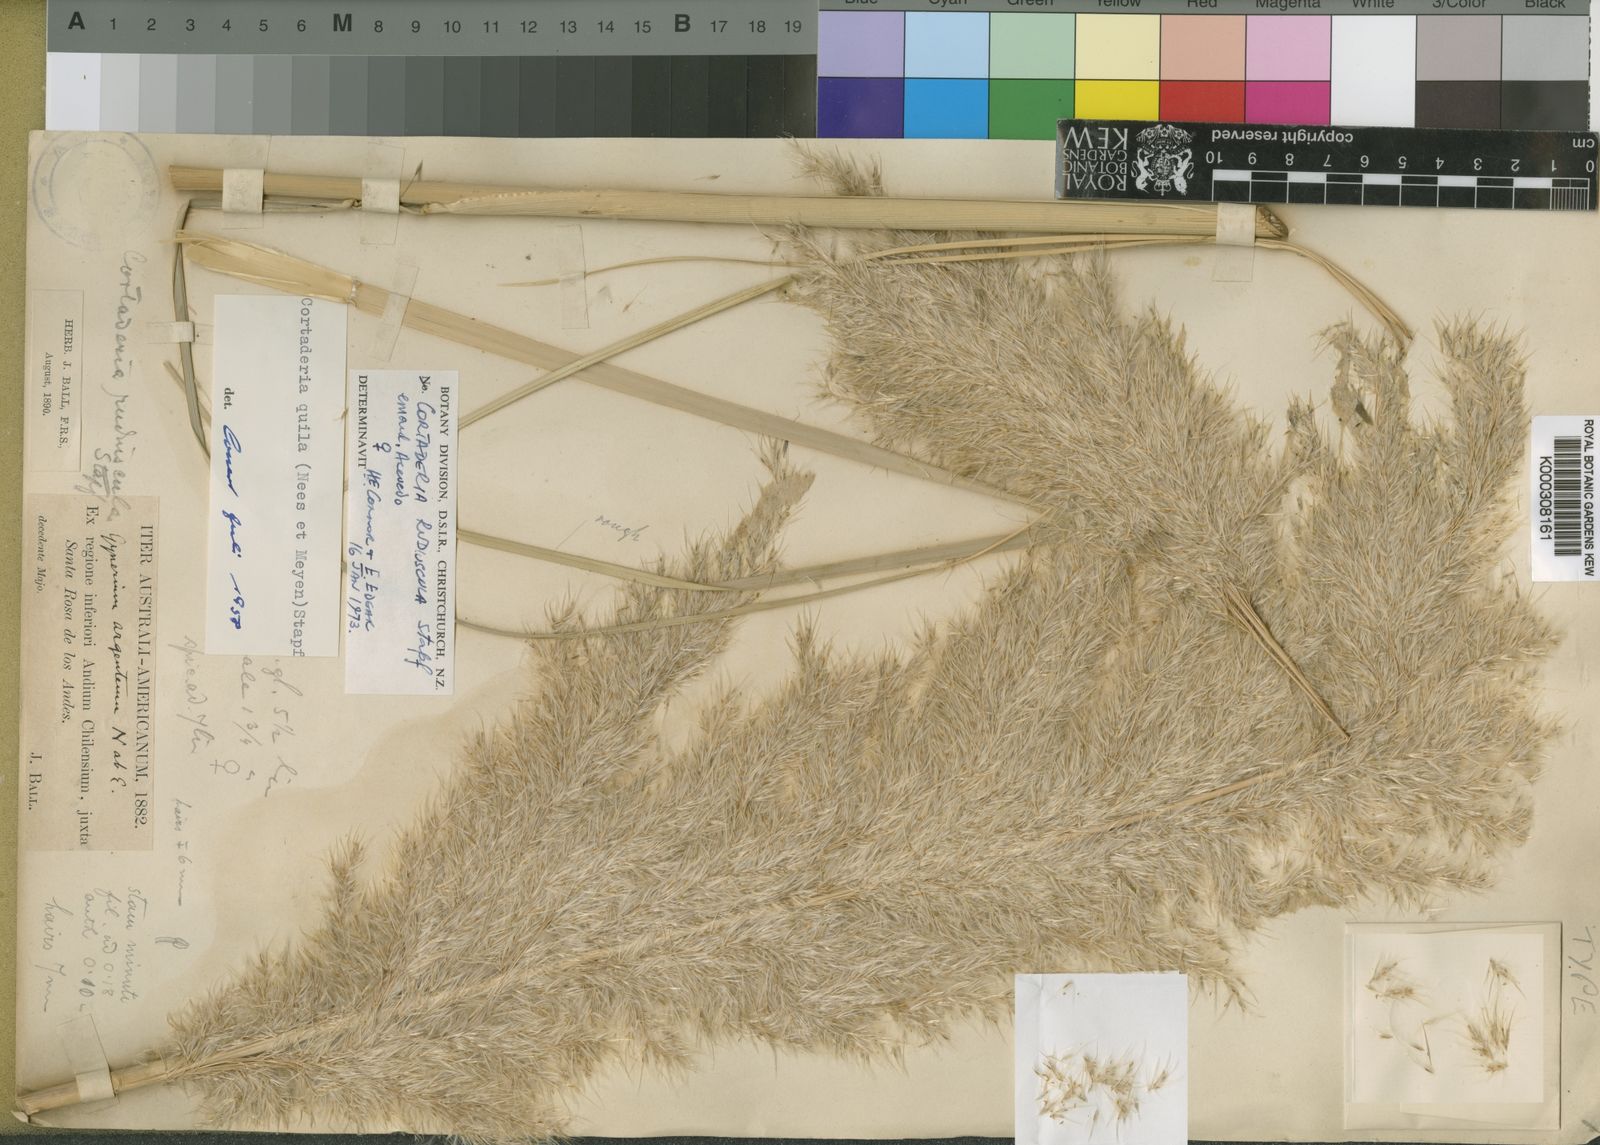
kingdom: Plantae
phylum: Tracheophyta
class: Liliopsida
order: Poales
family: Poaceae
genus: Cortaderia
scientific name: Cortaderia speciosa
